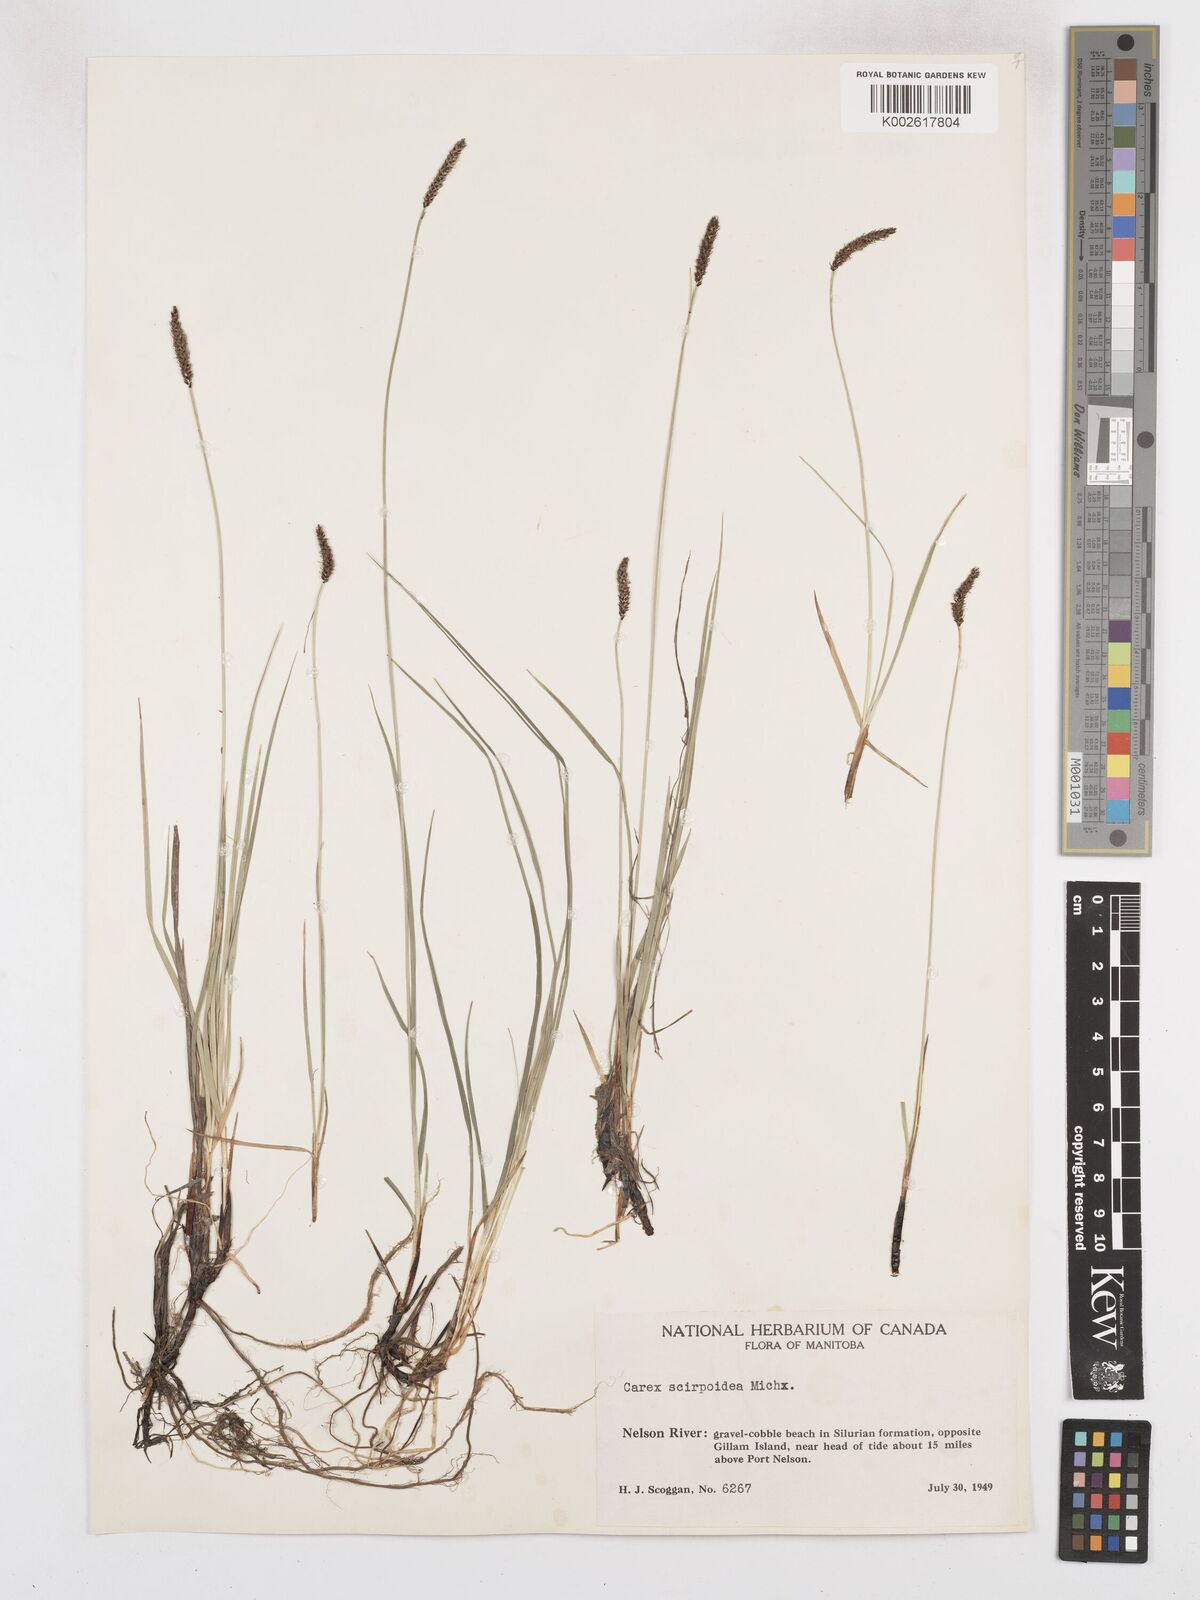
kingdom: Plantae
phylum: Tracheophyta
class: Liliopsida
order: Poales
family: Cyperaceae
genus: Carex
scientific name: Carex scirpoidea
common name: Canada single-spike sedge
